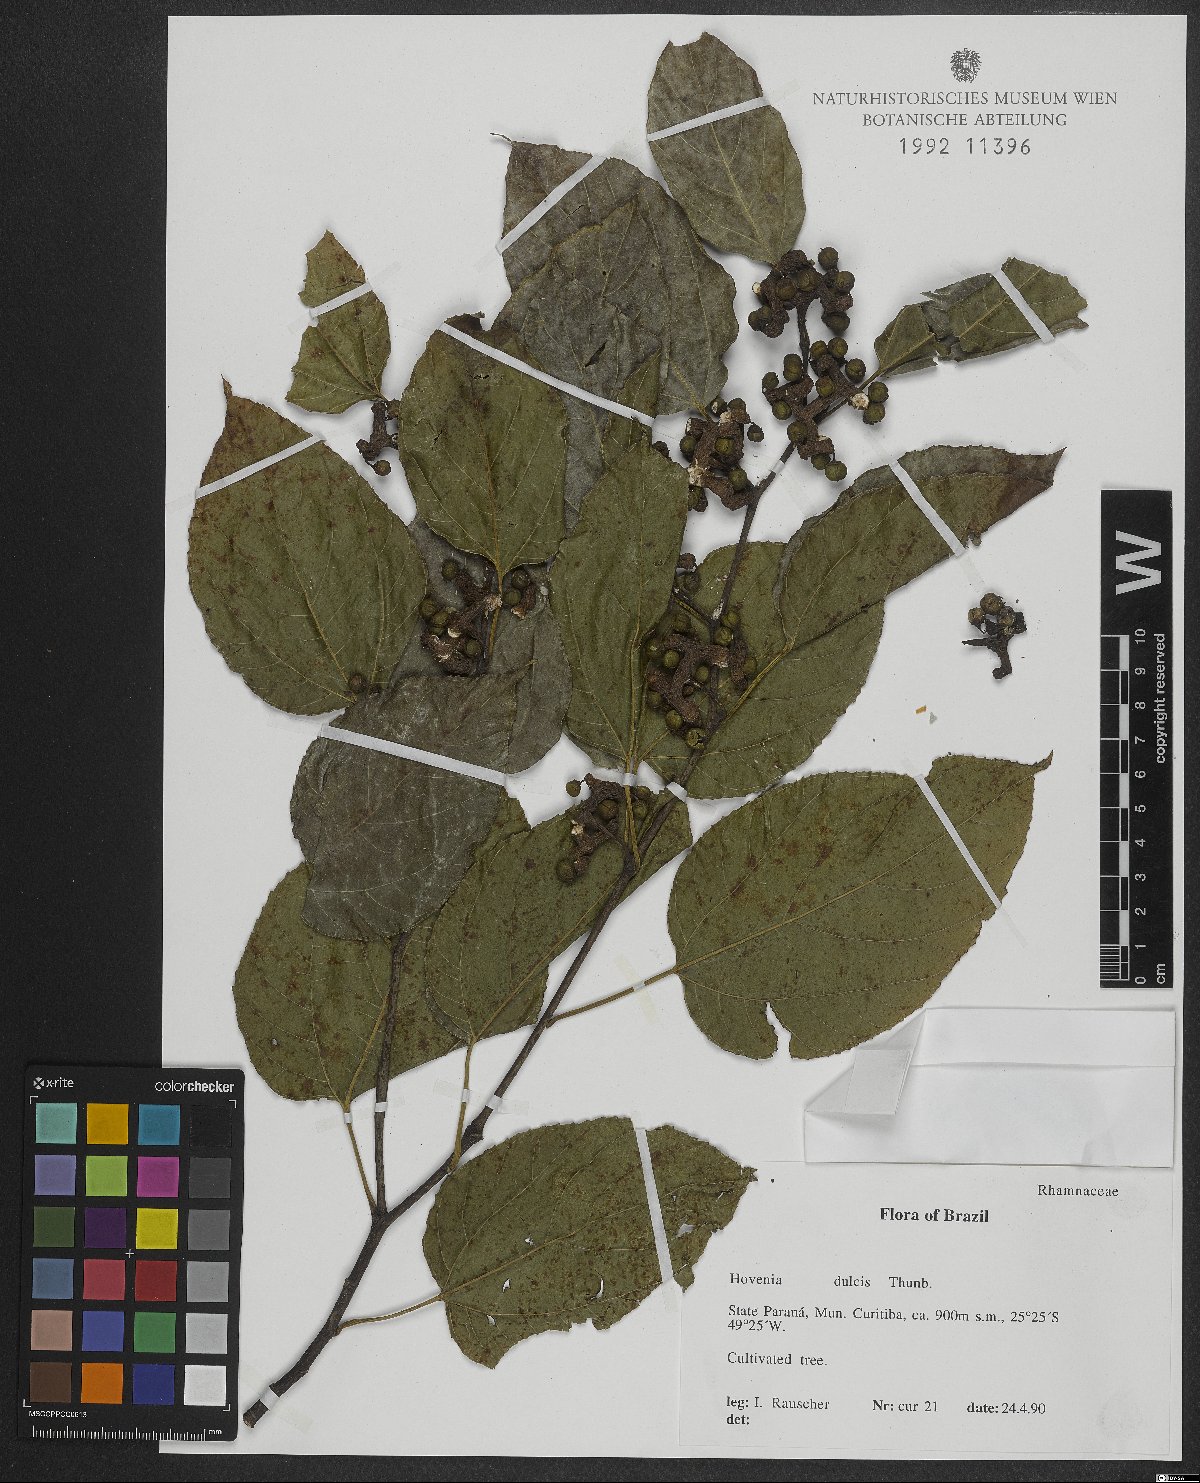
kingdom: Plantae
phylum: Tracheophyta
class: Magnoliopsida
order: Rosales
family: Rhamnaceae
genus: Hovenia
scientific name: Hovenia dulcis
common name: Japanese raisintree
